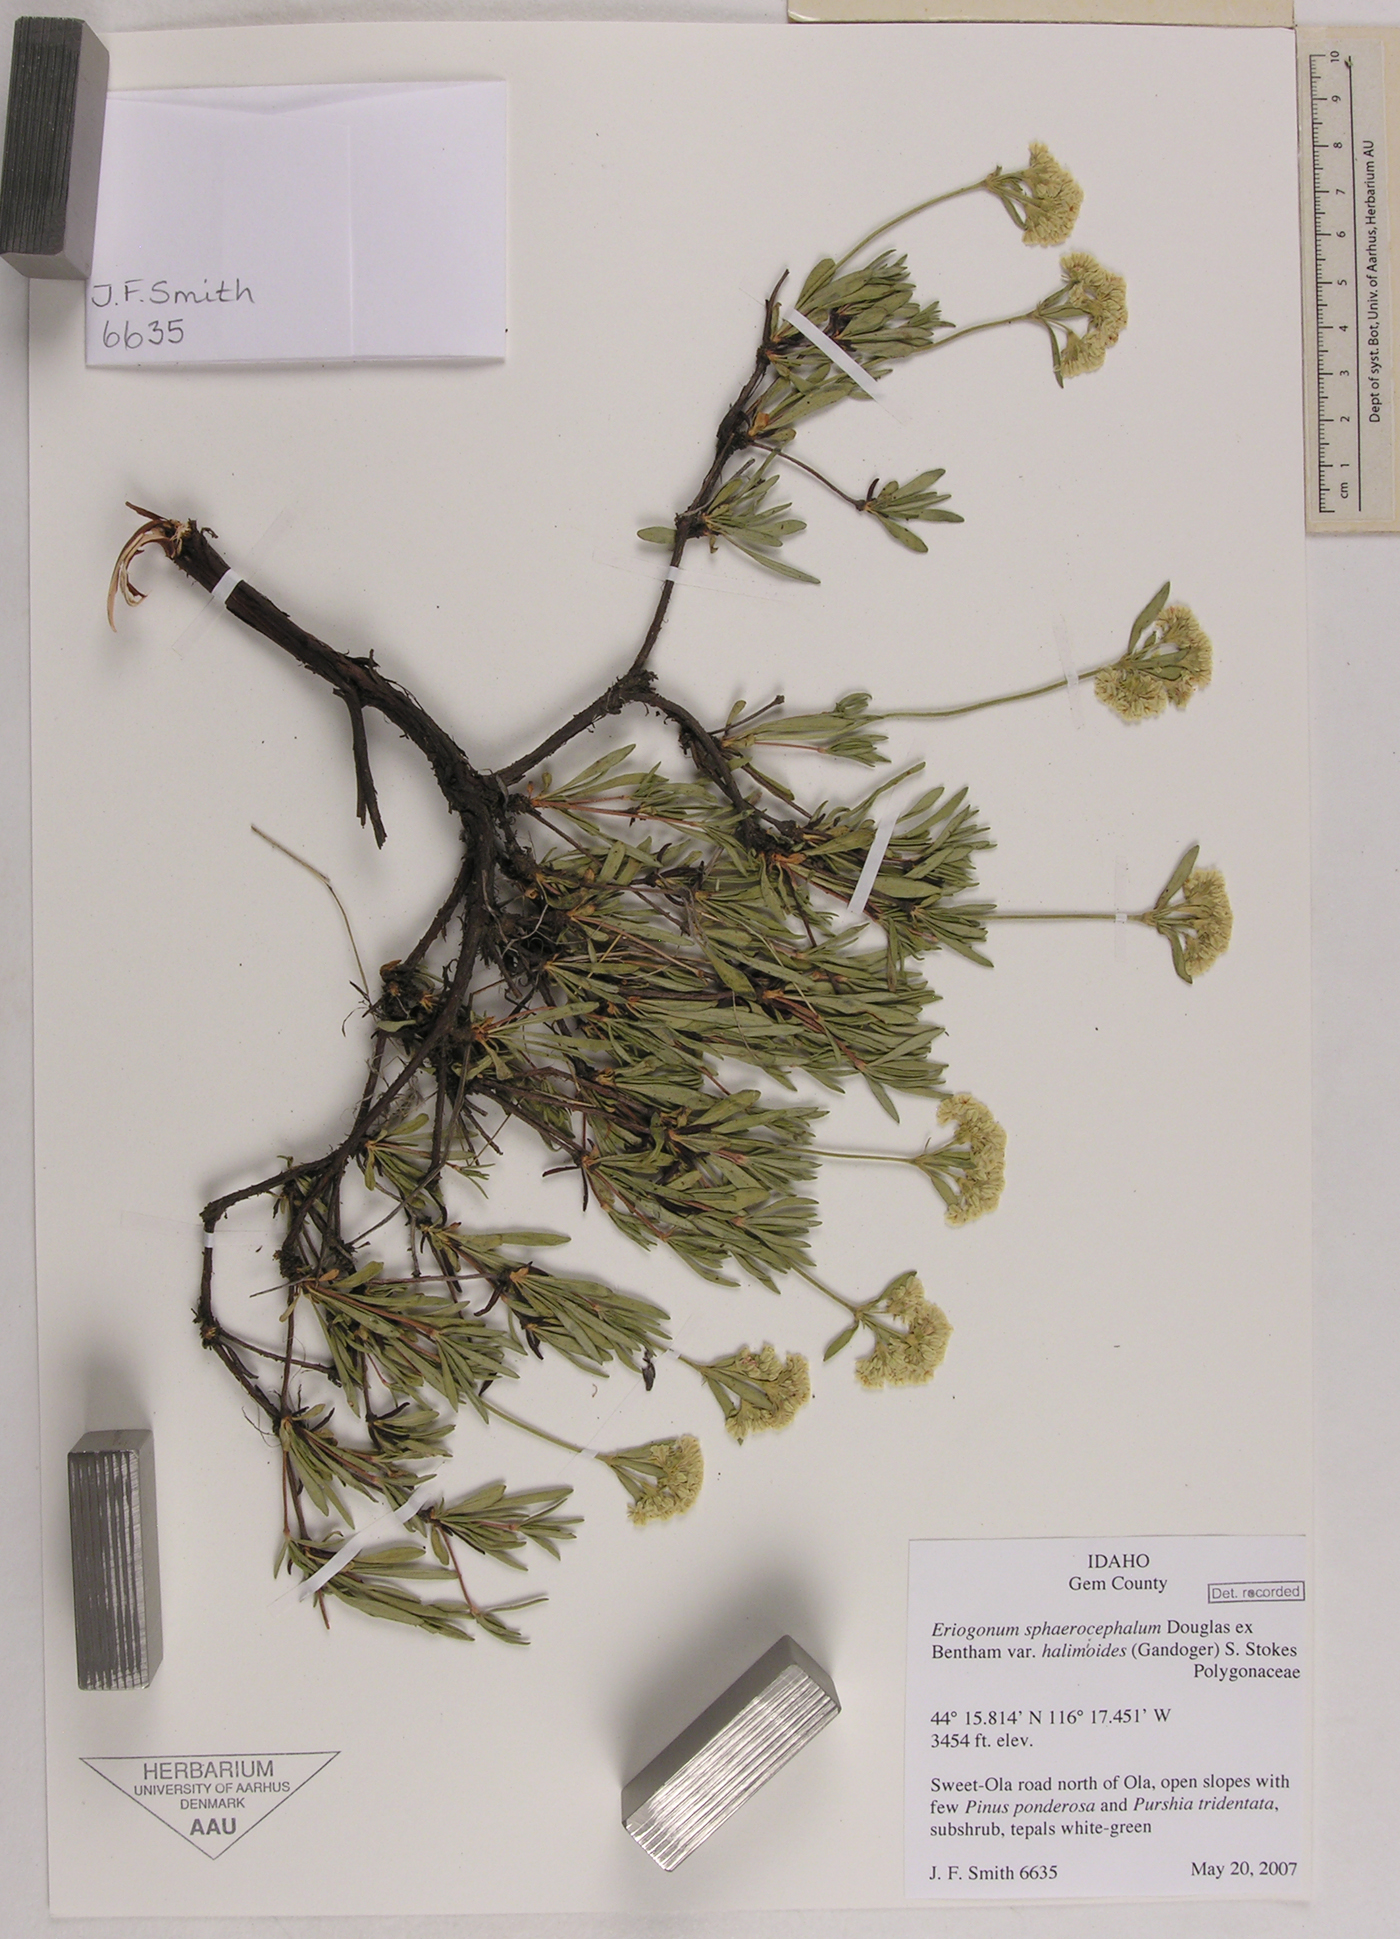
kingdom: Plantae
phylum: Tracheophyta
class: Magnoliopsida
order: Caryophyllales
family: Polygonaceae
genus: Eriogonum
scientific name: Eriogonum sphaerocephalum
